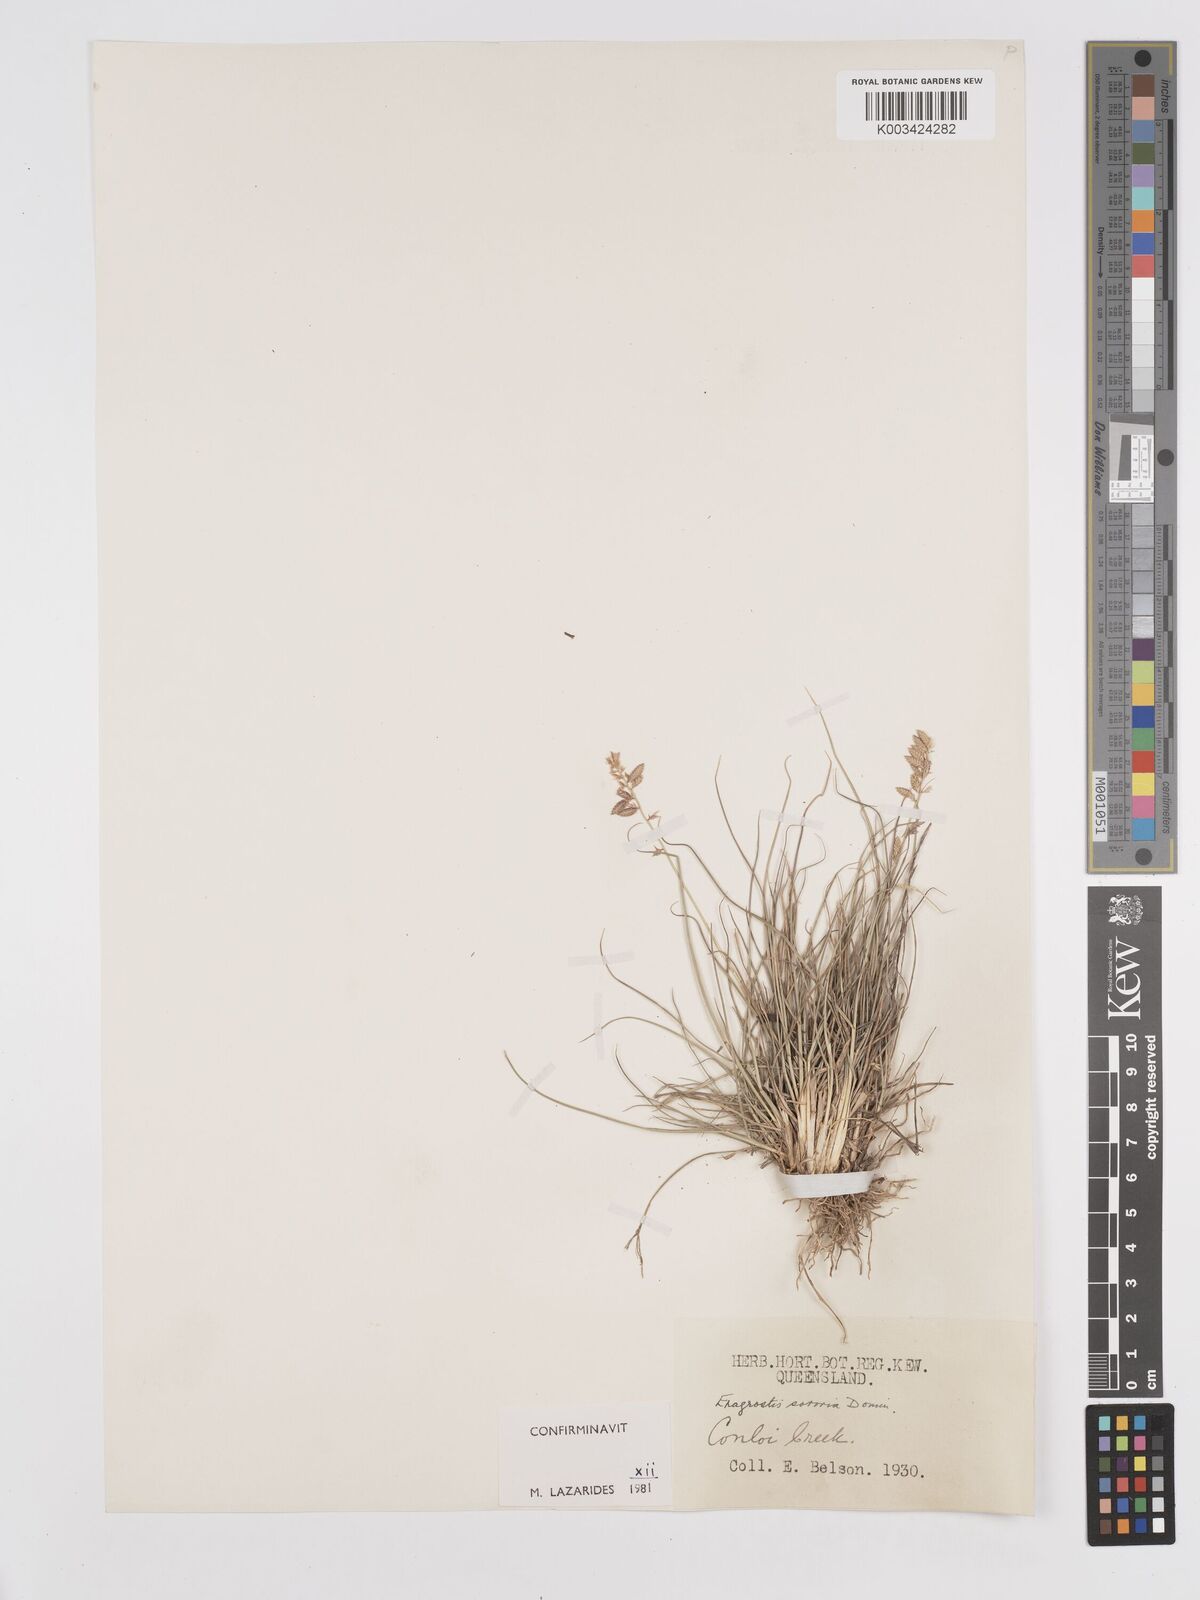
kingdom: Plantae
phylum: Tracheophyta
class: Liliopsida
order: Poales
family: Poaceae
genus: Eragrostis
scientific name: Eragrostis sororia
